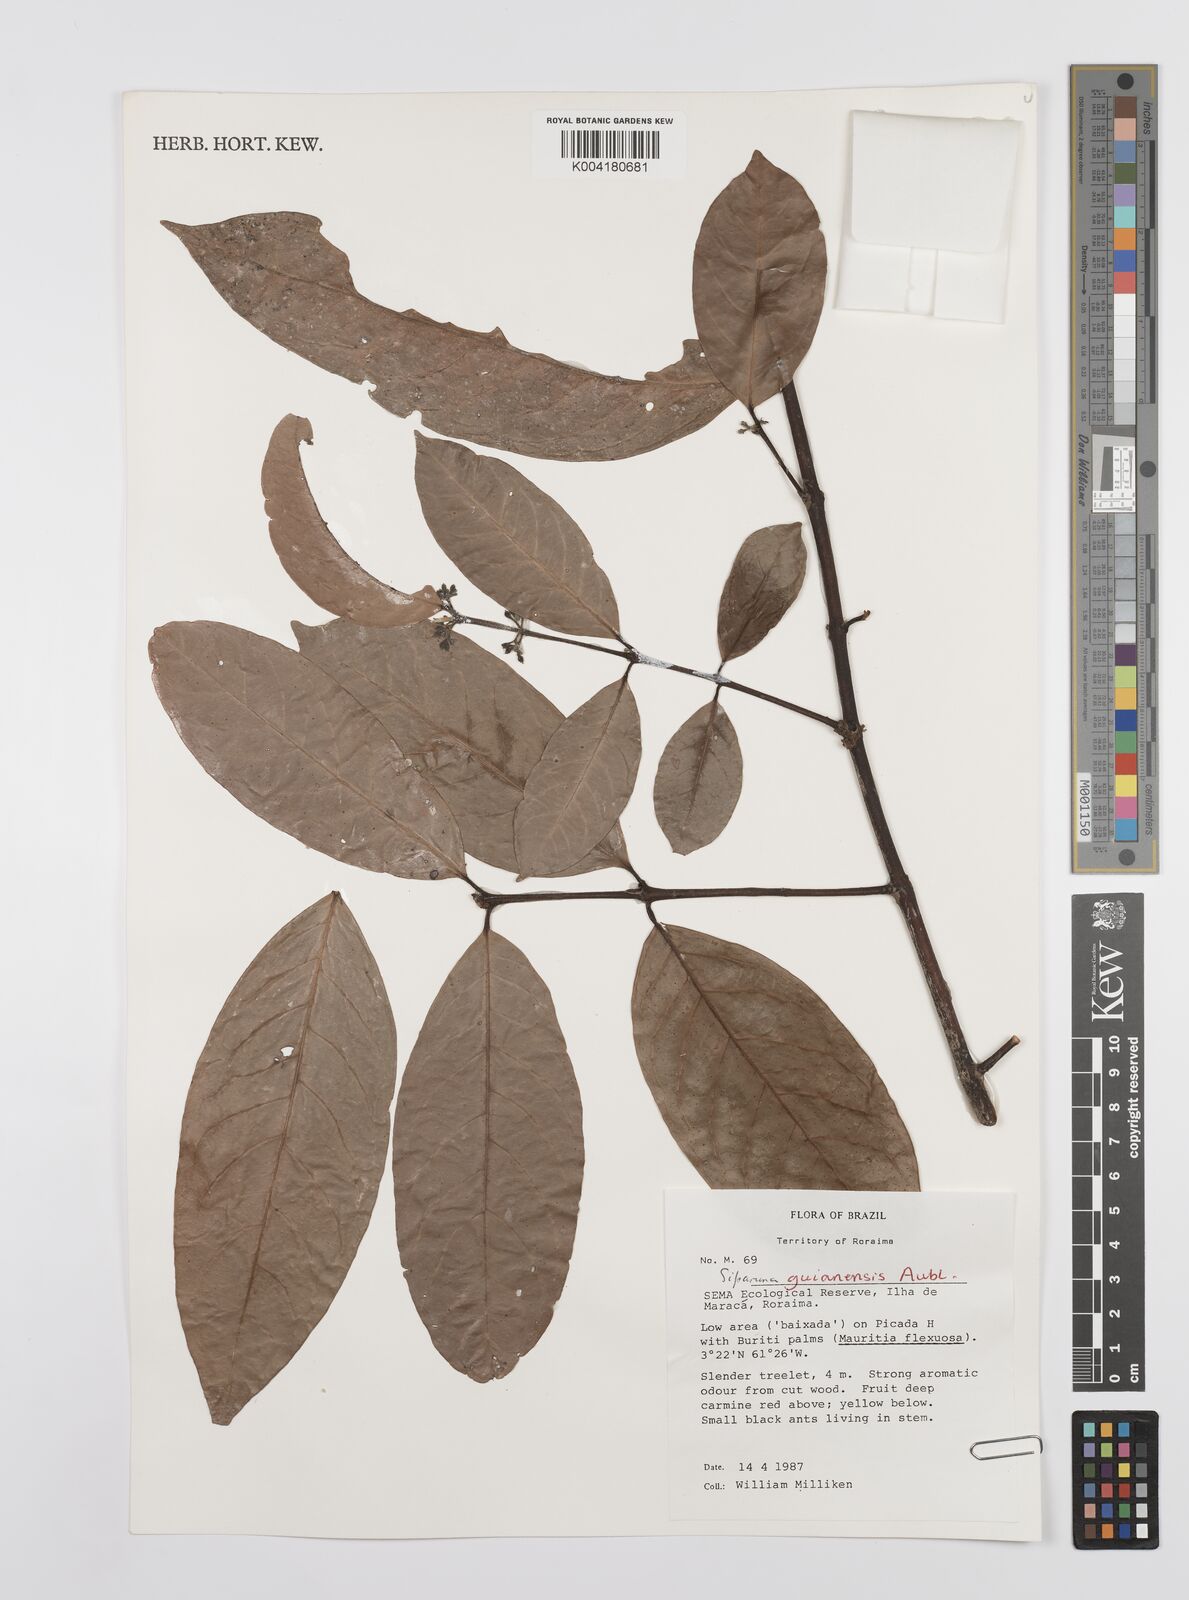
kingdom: Plantae
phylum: Tracheophyta
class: Magnoliopsida
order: Laurales
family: Siparunaceae
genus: Siparuna
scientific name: Siparuna guianensis
